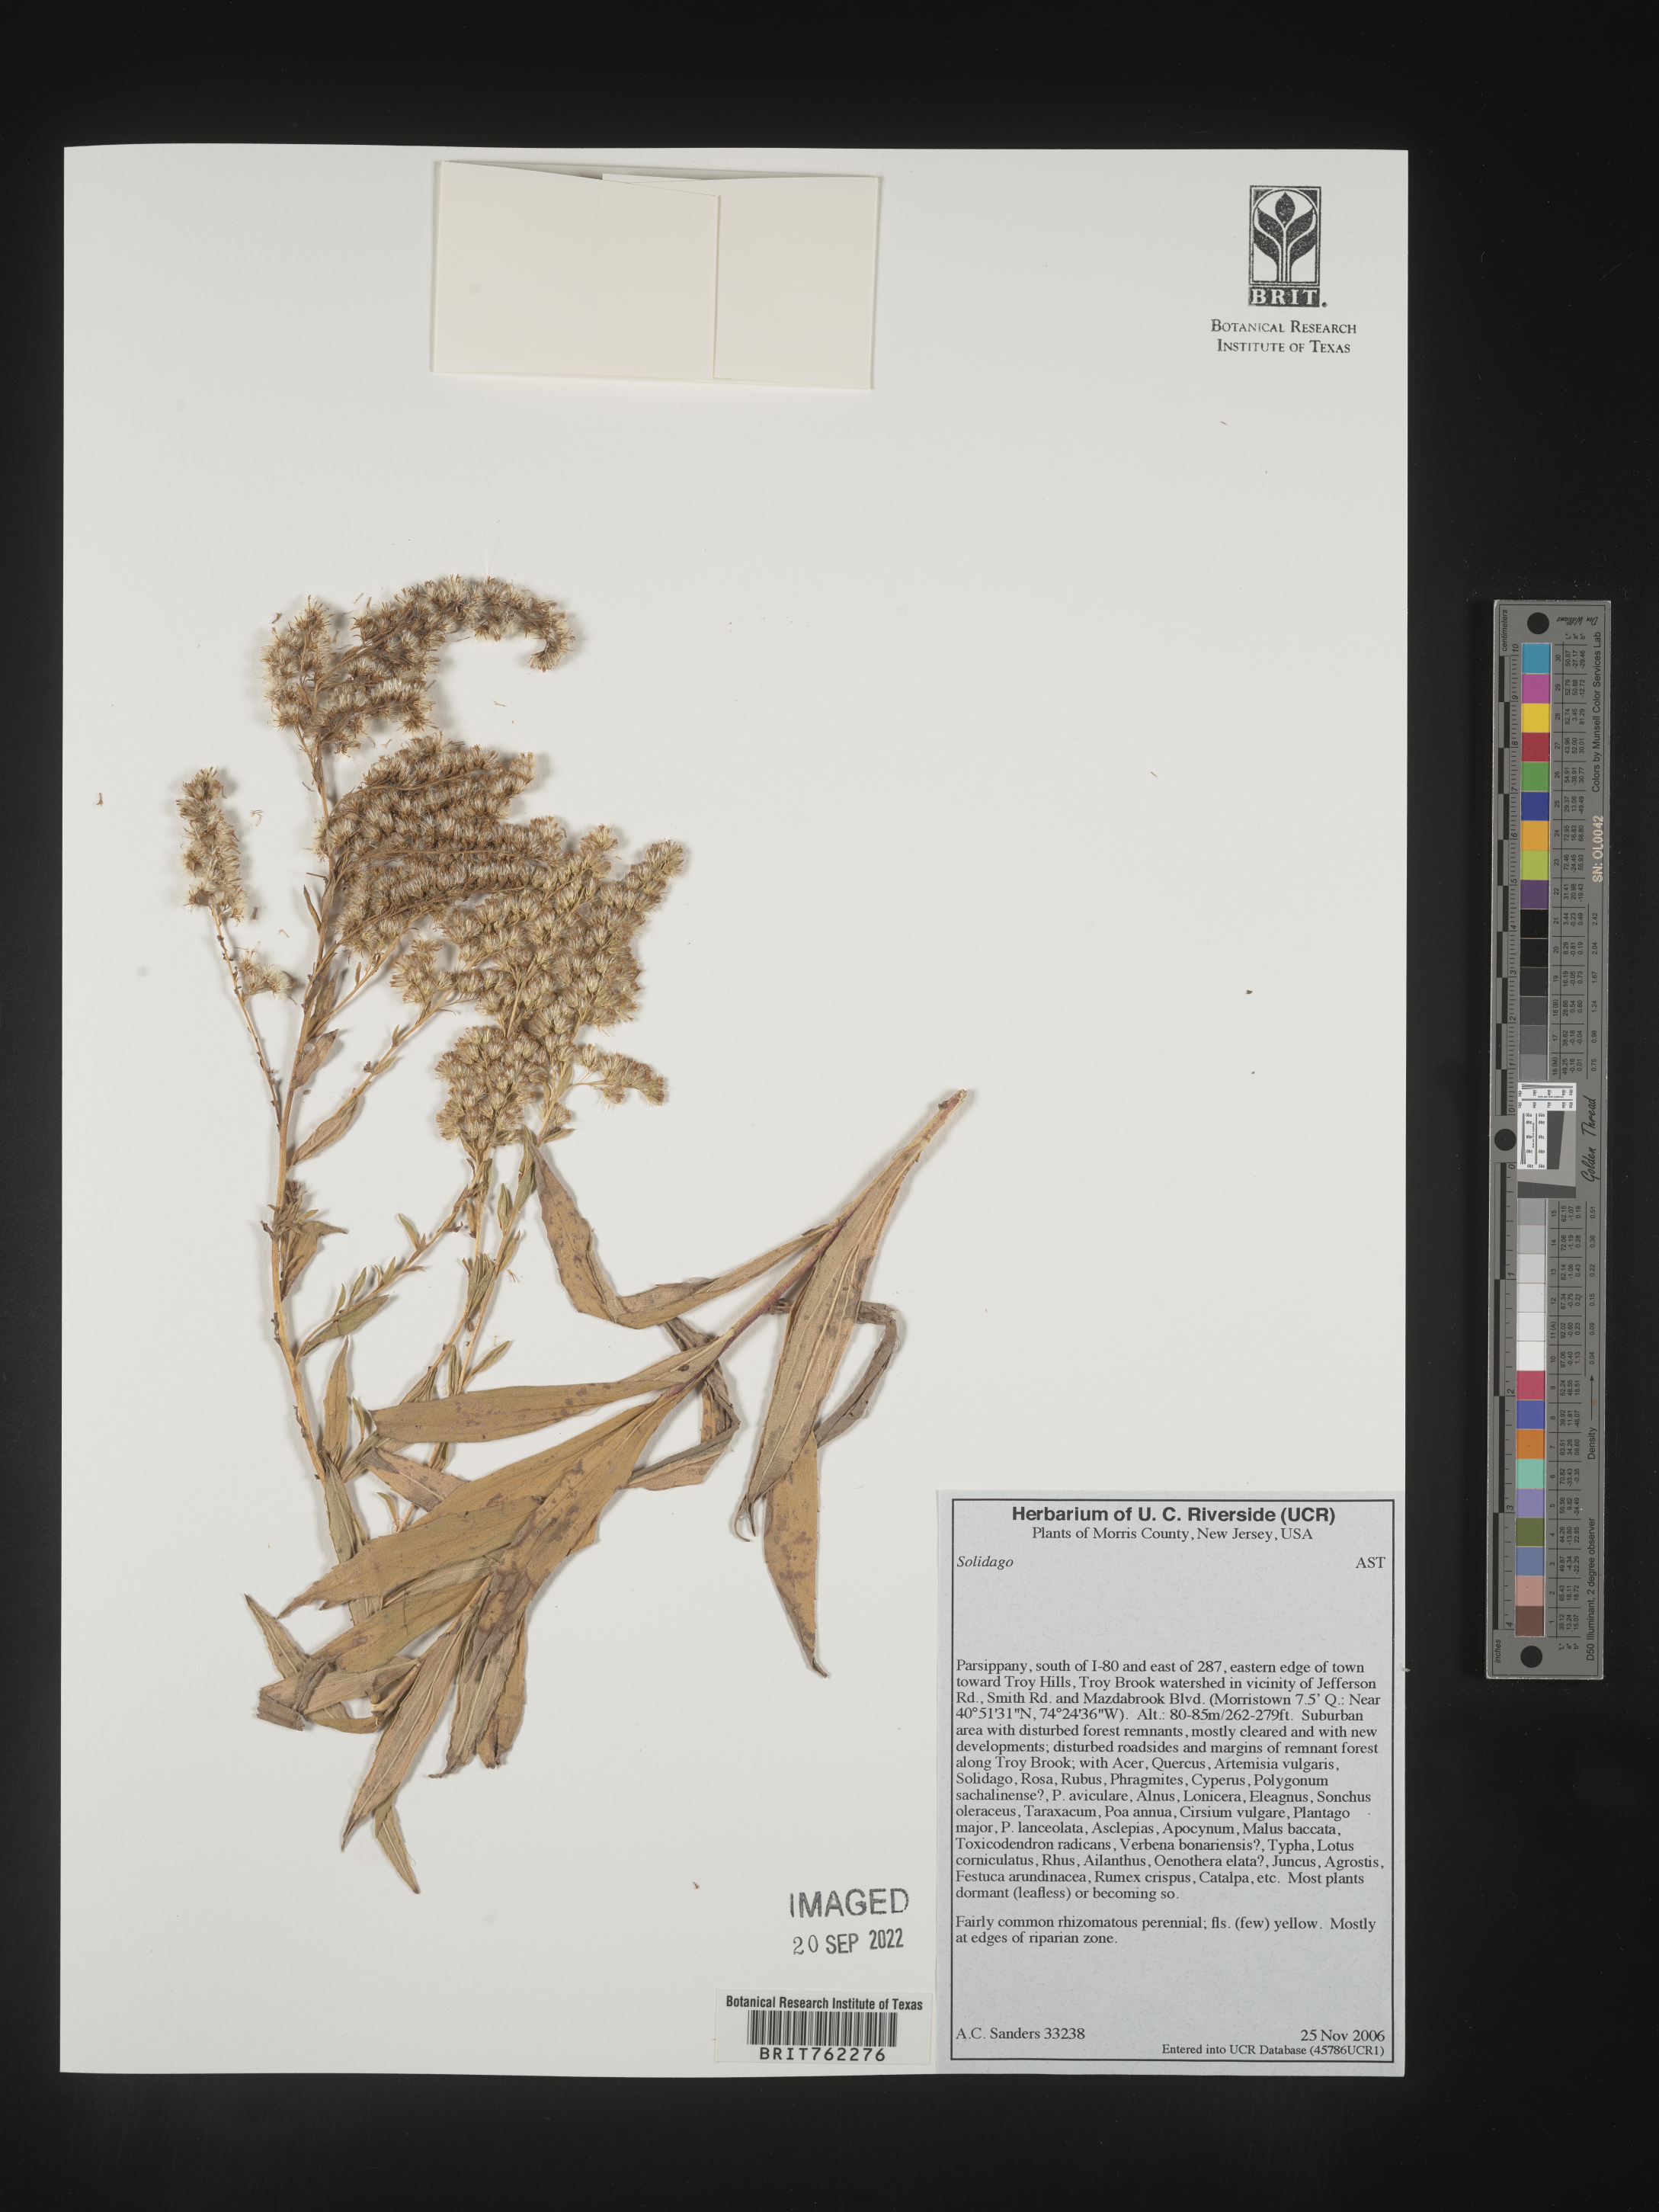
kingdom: Plantae
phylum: Tracheophyta
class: Magnoliopsida
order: Asterales
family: Asteraceae
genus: Solidago
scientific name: Solidago
